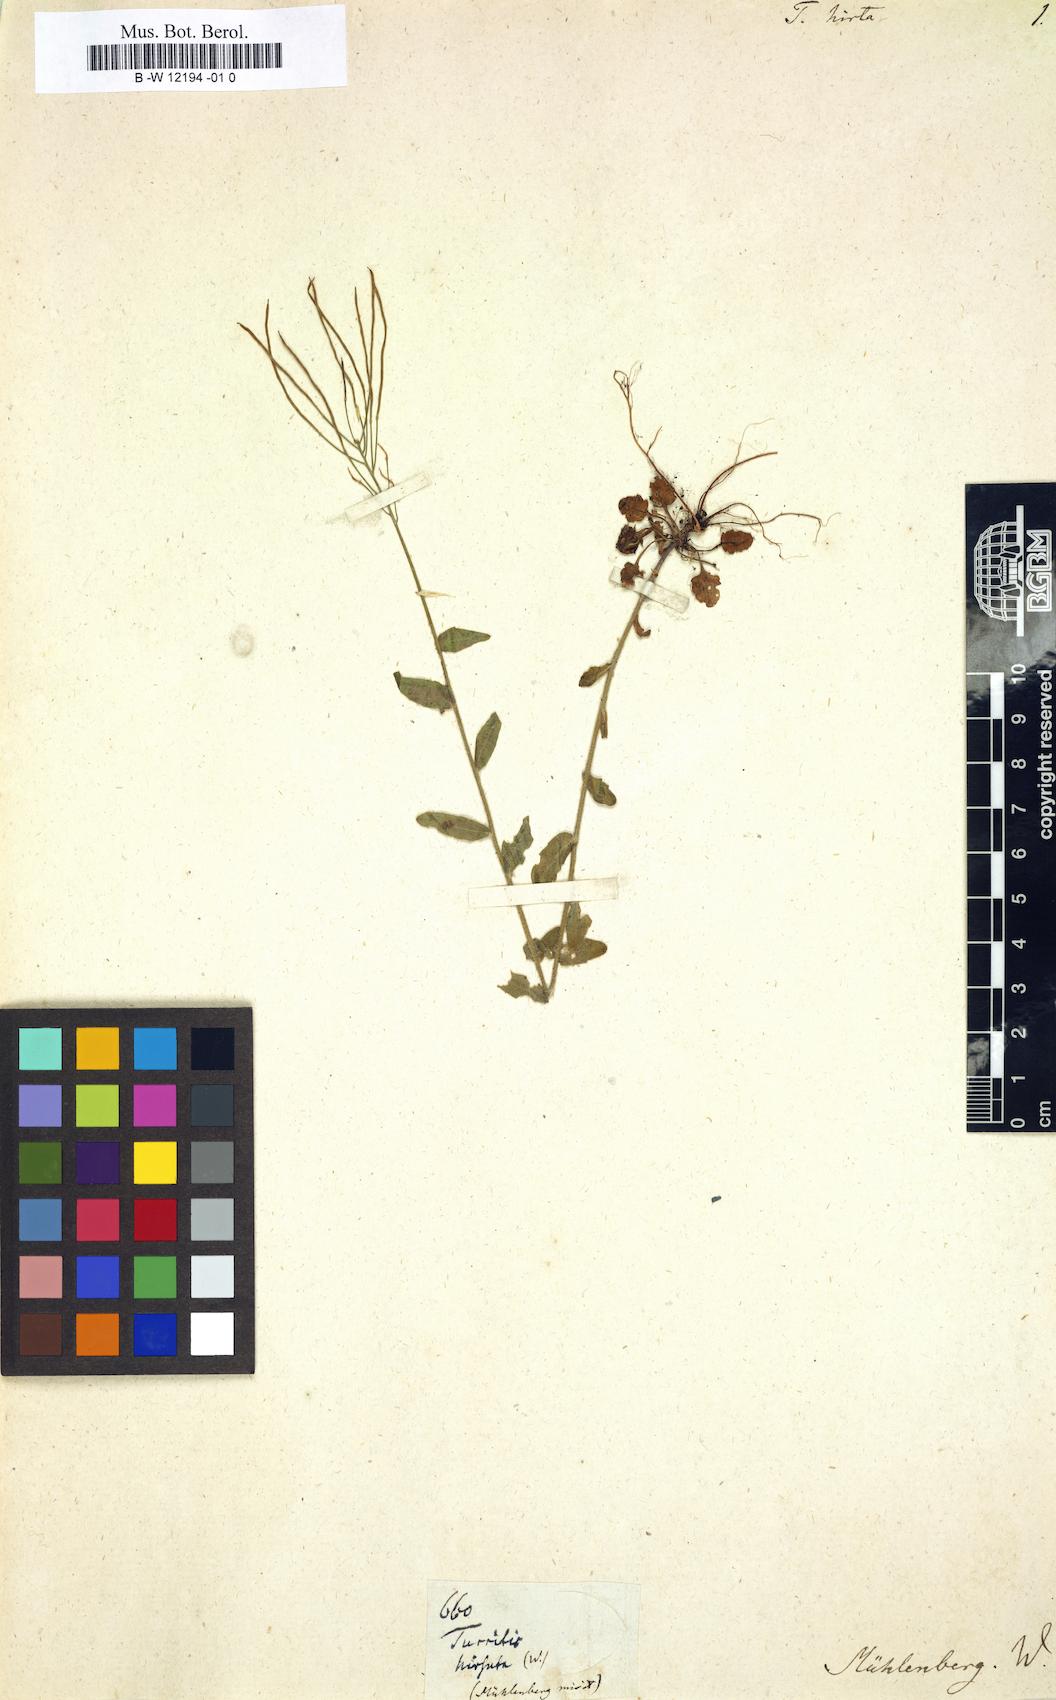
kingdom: Plantae
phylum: Tracheophyta
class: Magnoliopsida
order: Brassicales
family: Brassicaceae
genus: Turritis
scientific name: Turritis hirsuta
